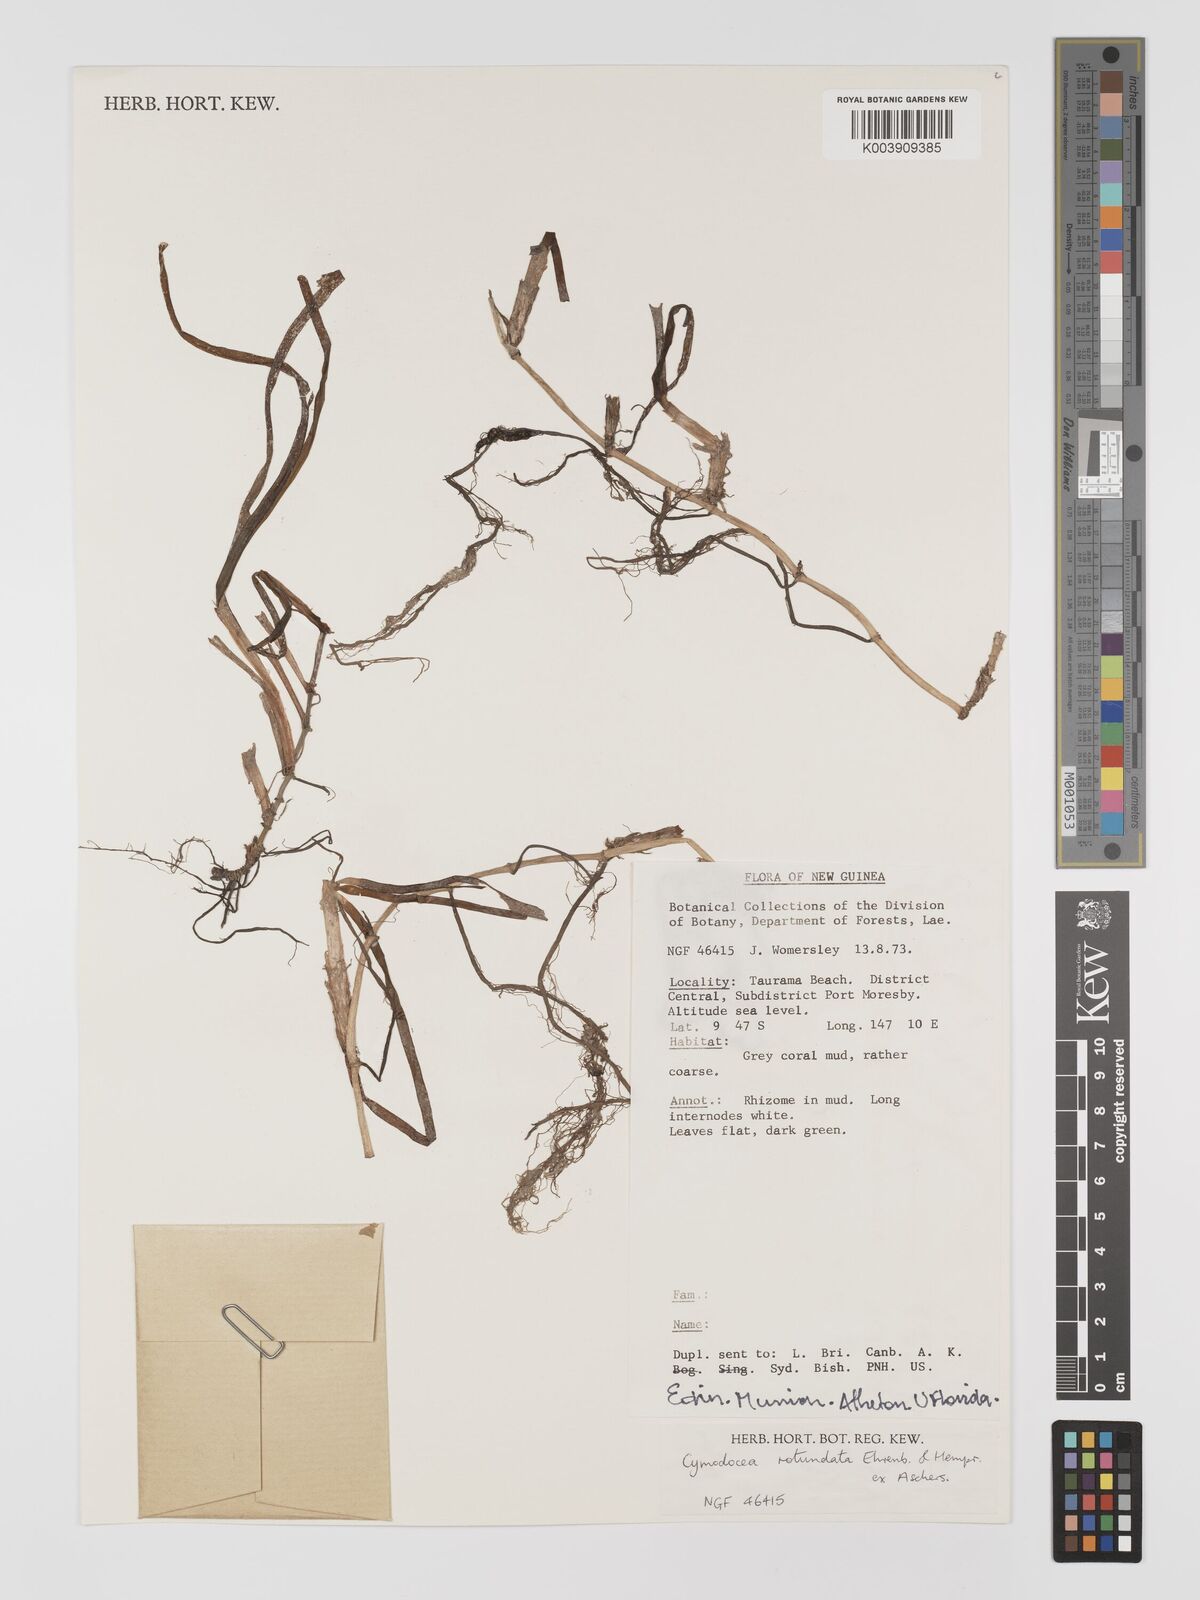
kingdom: Plantae
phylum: Tracheophyta
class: Liliopsida
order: Alismatales
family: Cymodoceaceae
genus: Cymodocea
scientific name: Cymodocea rotundata
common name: Species code: cr
